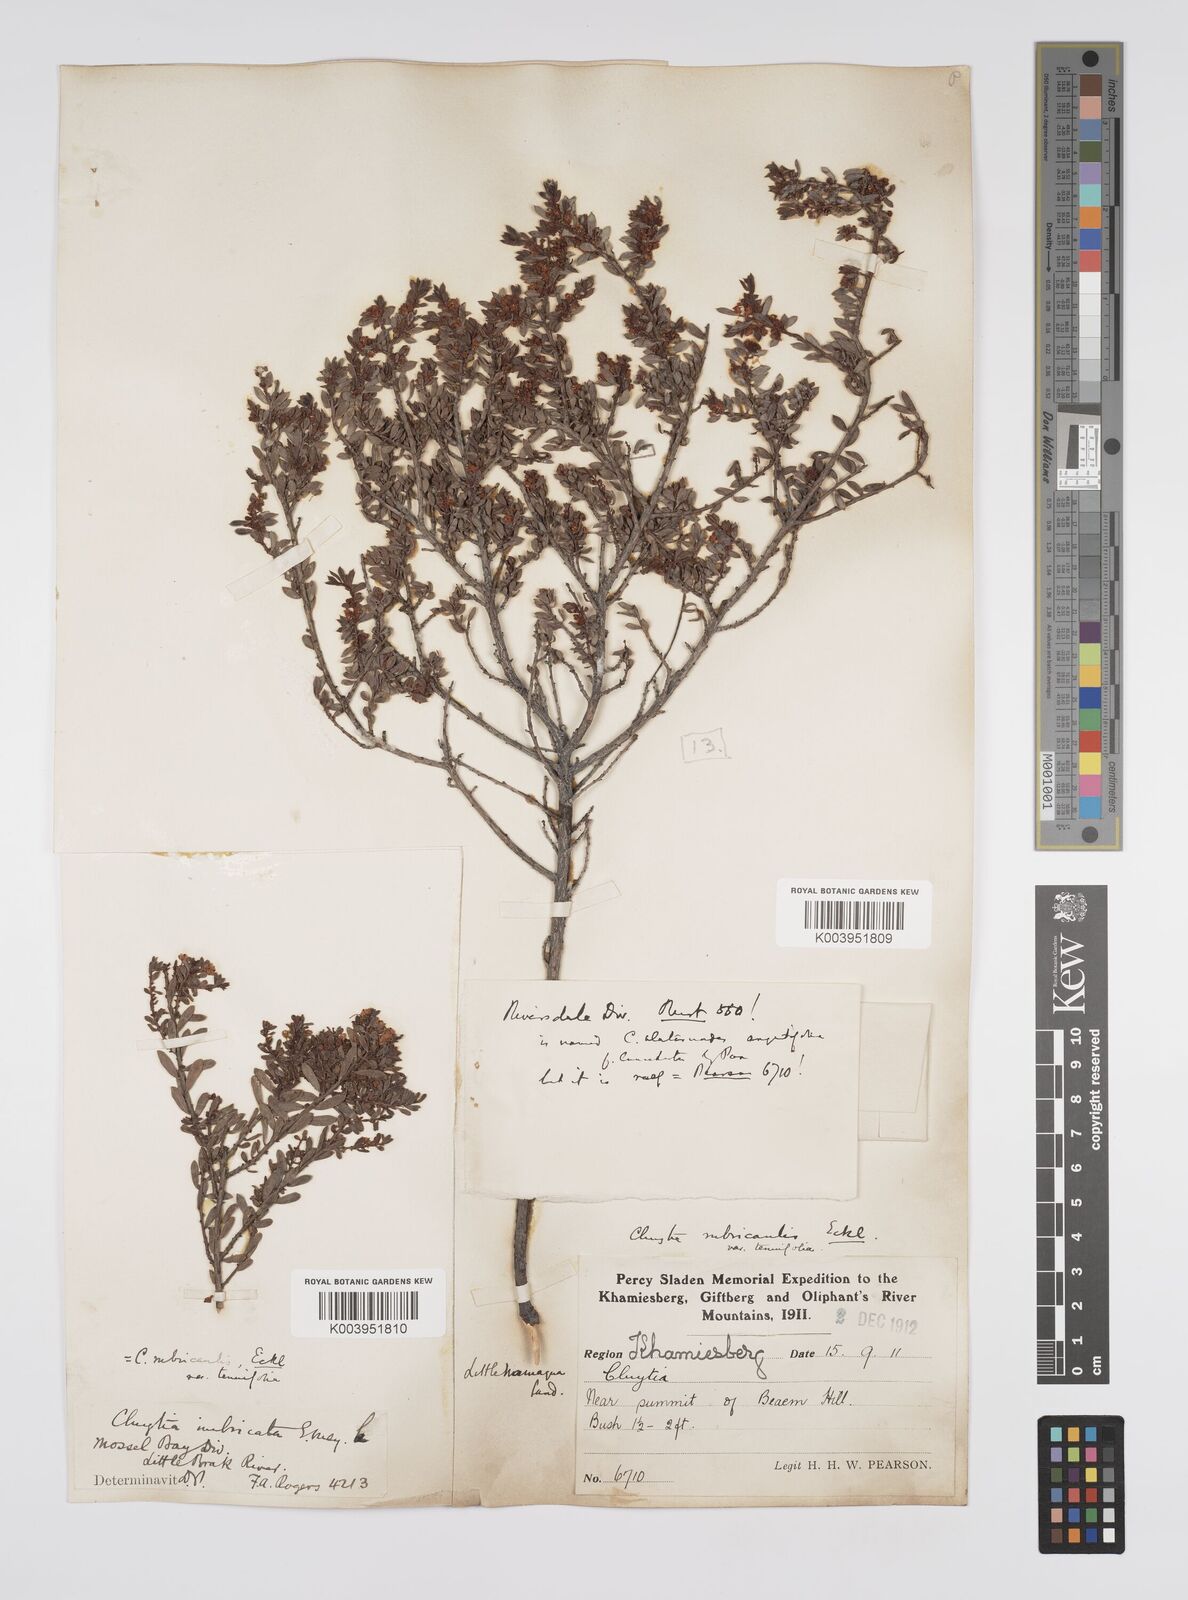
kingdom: Plantae
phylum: Tracheophyta
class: Magnoliopsida
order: Malpighiales
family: Peraceae
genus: Clutia
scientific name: Clutia rubricaulis
